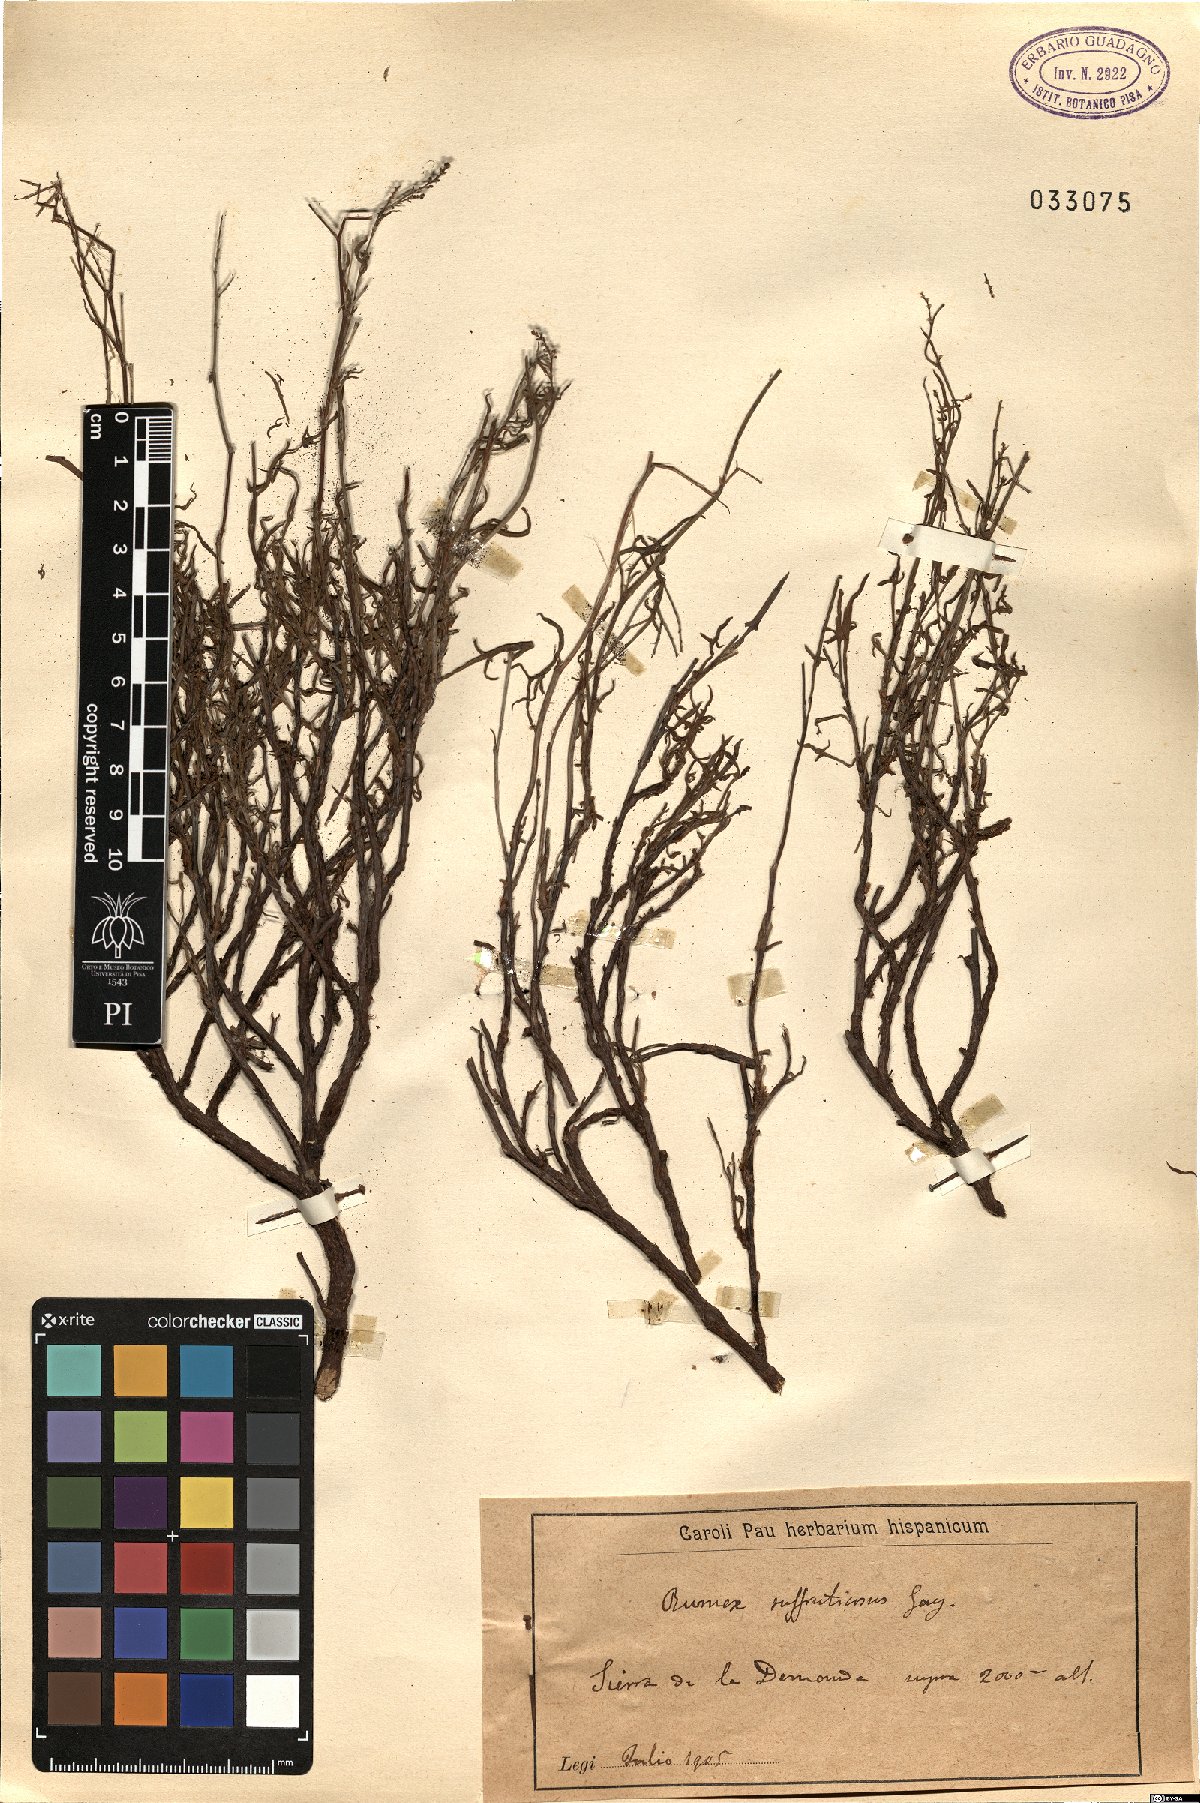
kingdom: Plantae
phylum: Tracheophyta
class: Magnoliopsida
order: Caryophyllales
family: Polygonaceae
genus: Rumex
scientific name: Rumex suffruticosus
